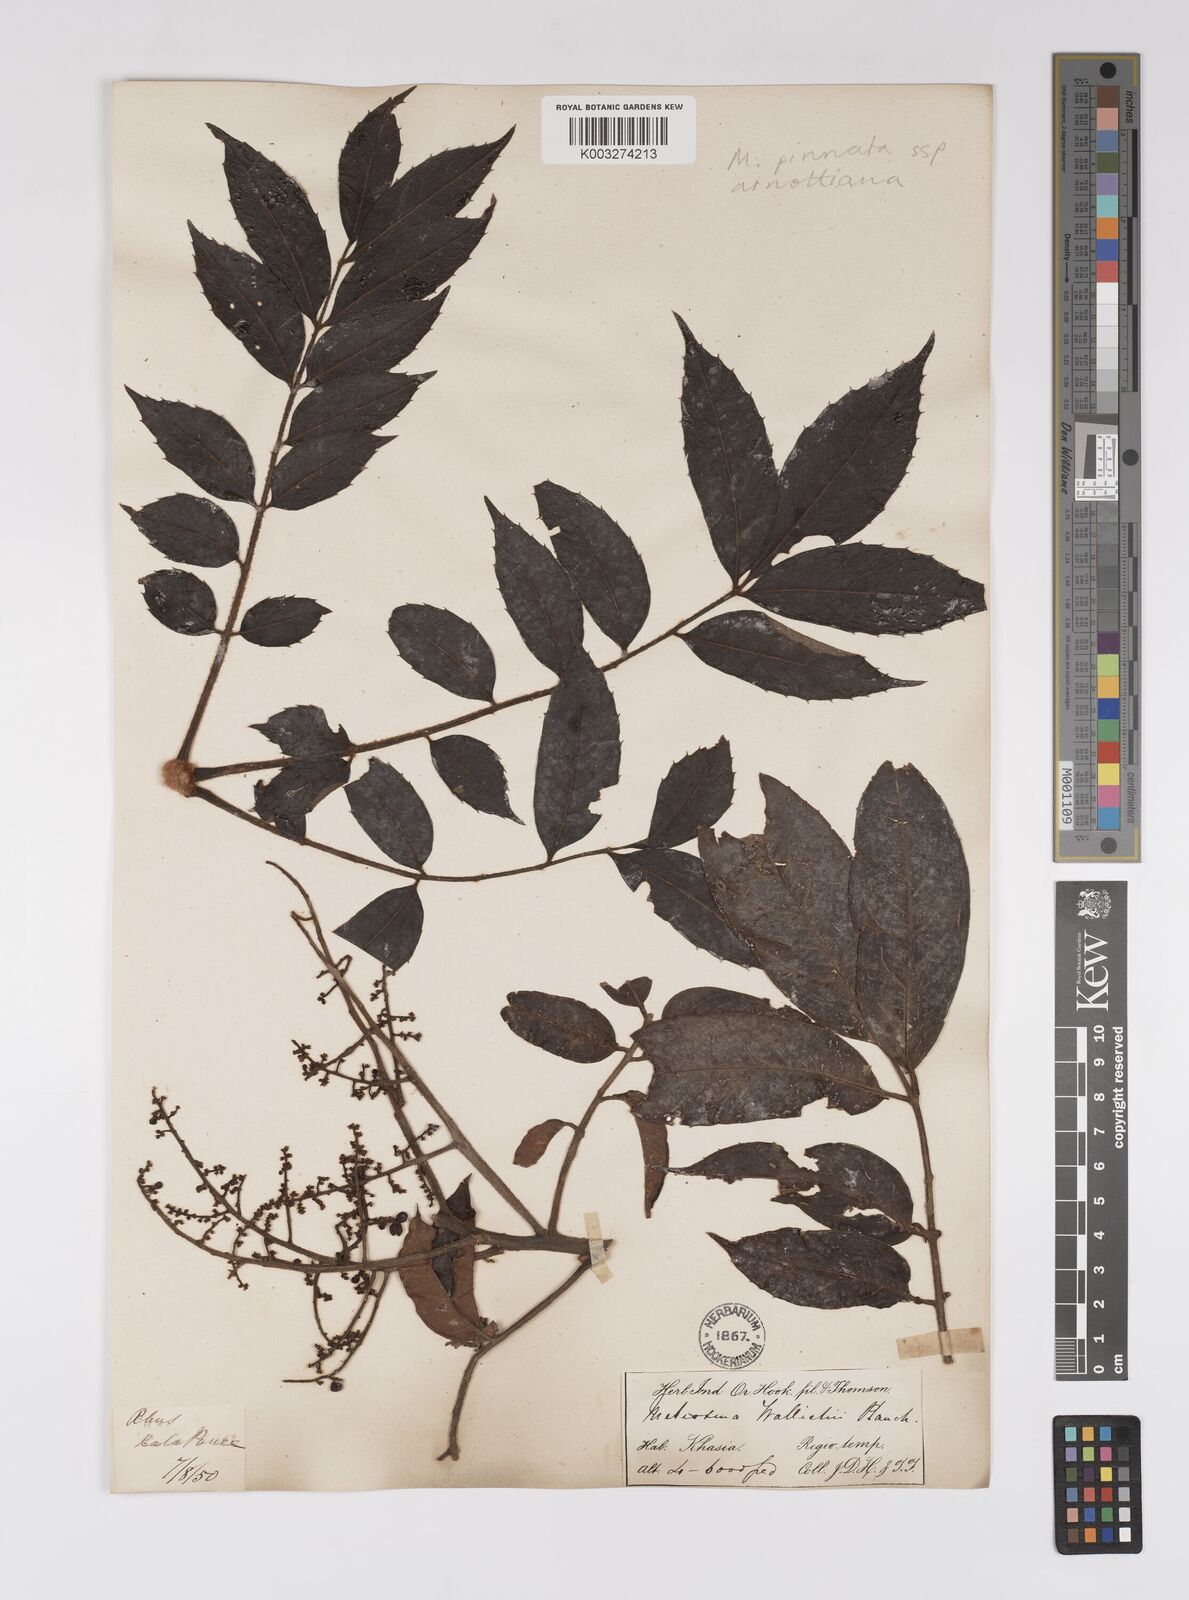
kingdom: Plantae
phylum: Tracheophyta
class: Magnoliopsida
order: Proteales
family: Sabiaceae
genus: Meliosma
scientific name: Meliosma rhoifolia
